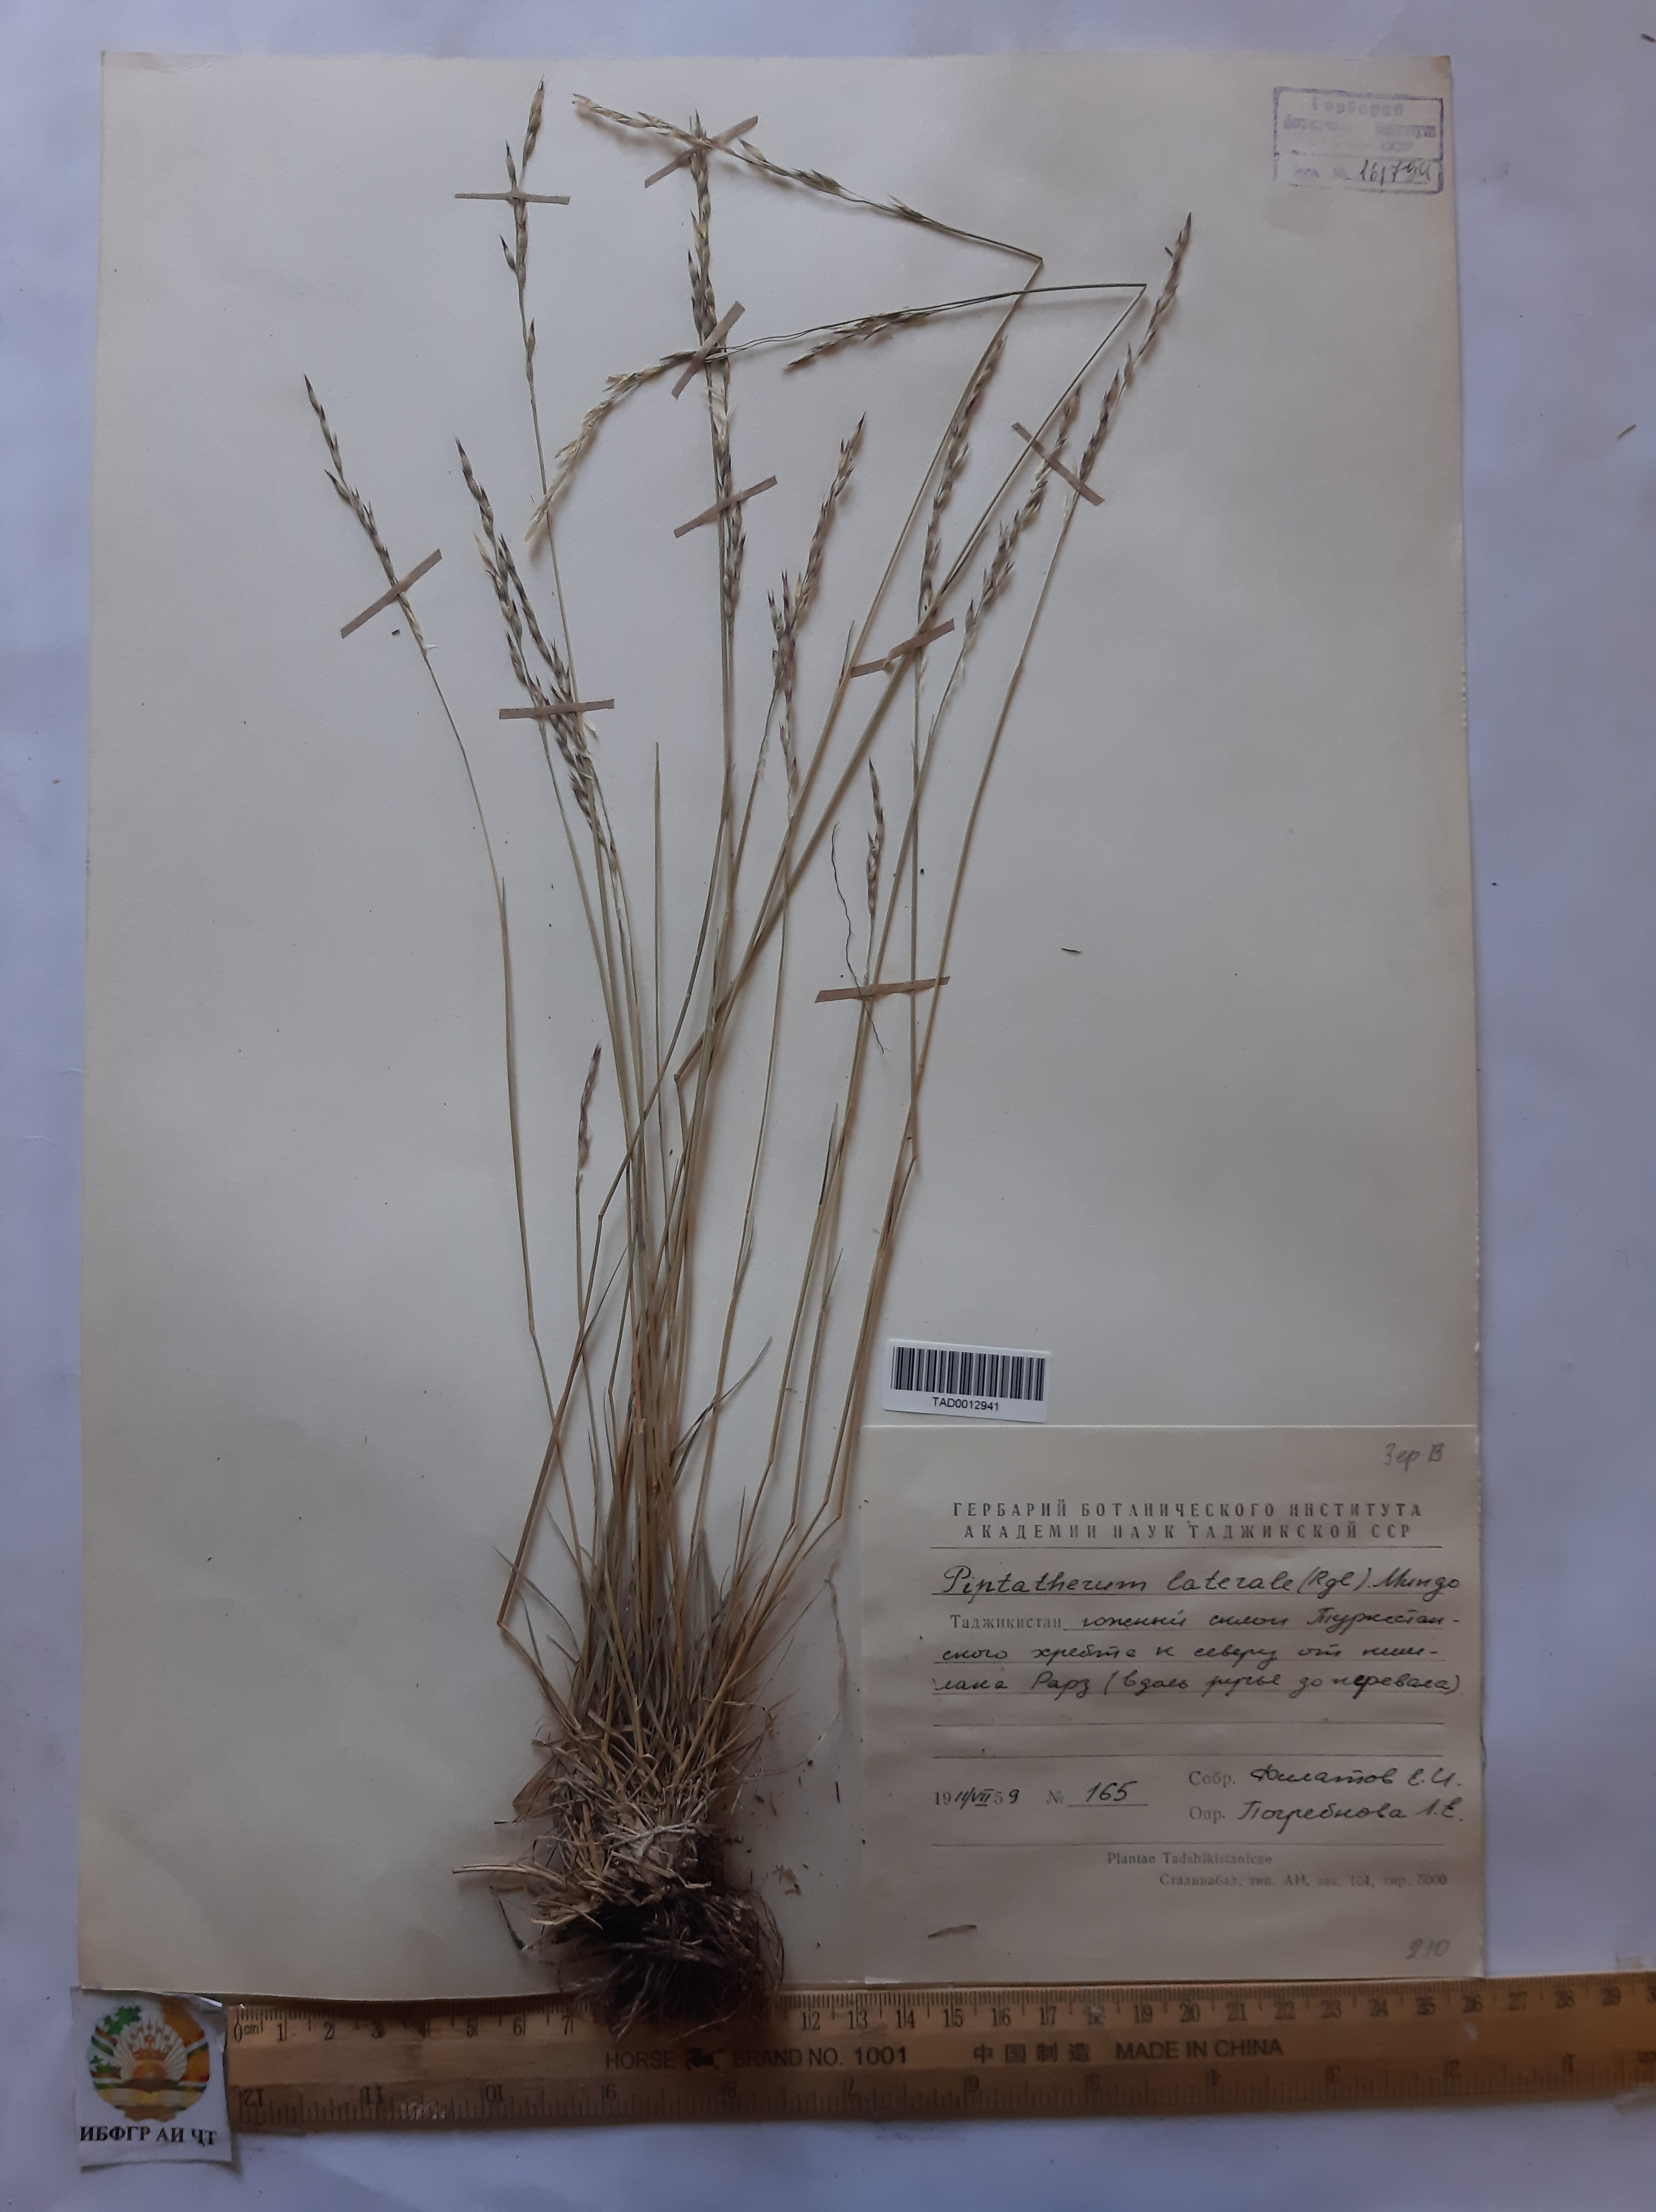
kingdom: Plantae
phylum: Tracheophyta
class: Liliopsida
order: Poales
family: Poaceae
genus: Piptatherum
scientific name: Piptatherum laterale
